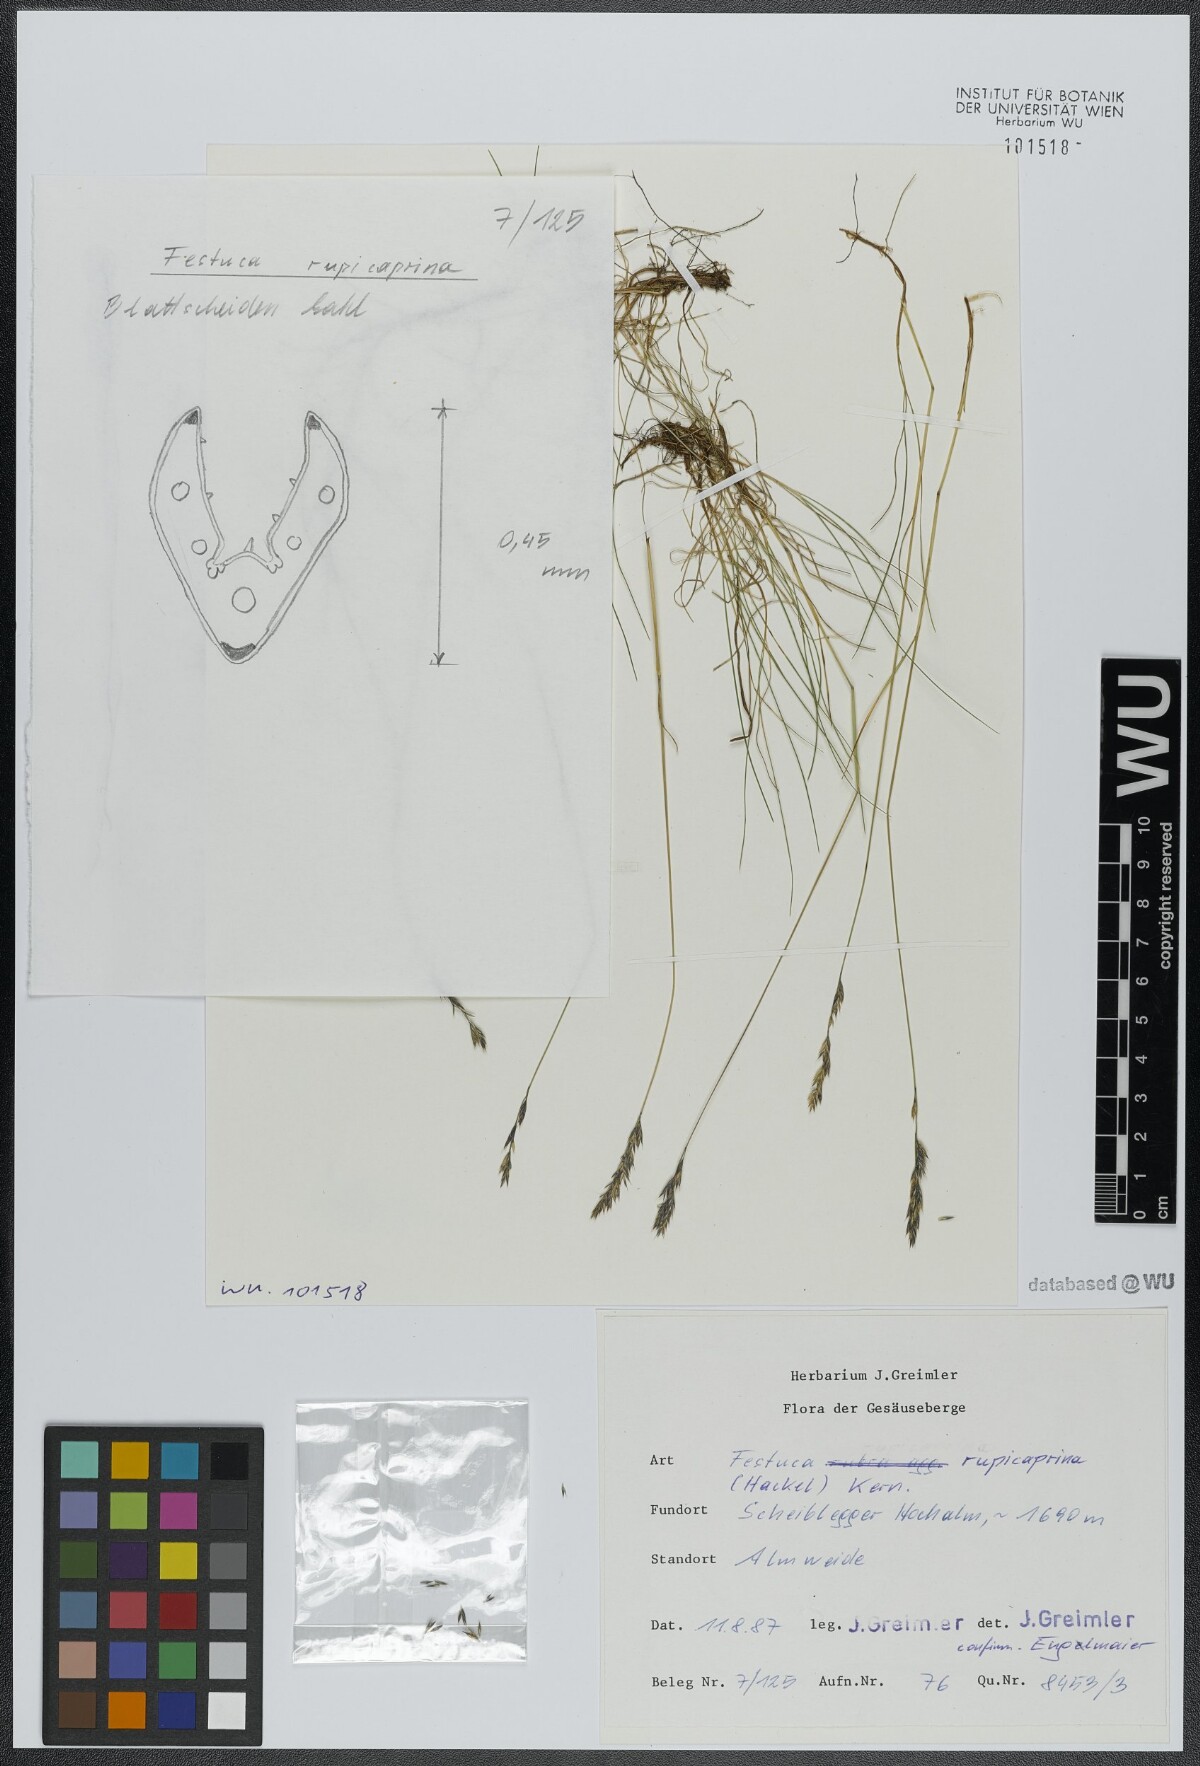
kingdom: Plantae
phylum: Tracheophyta
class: Liliopsida
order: Poales
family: Poaceae
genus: Festuca
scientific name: Festuca rupicaprina
